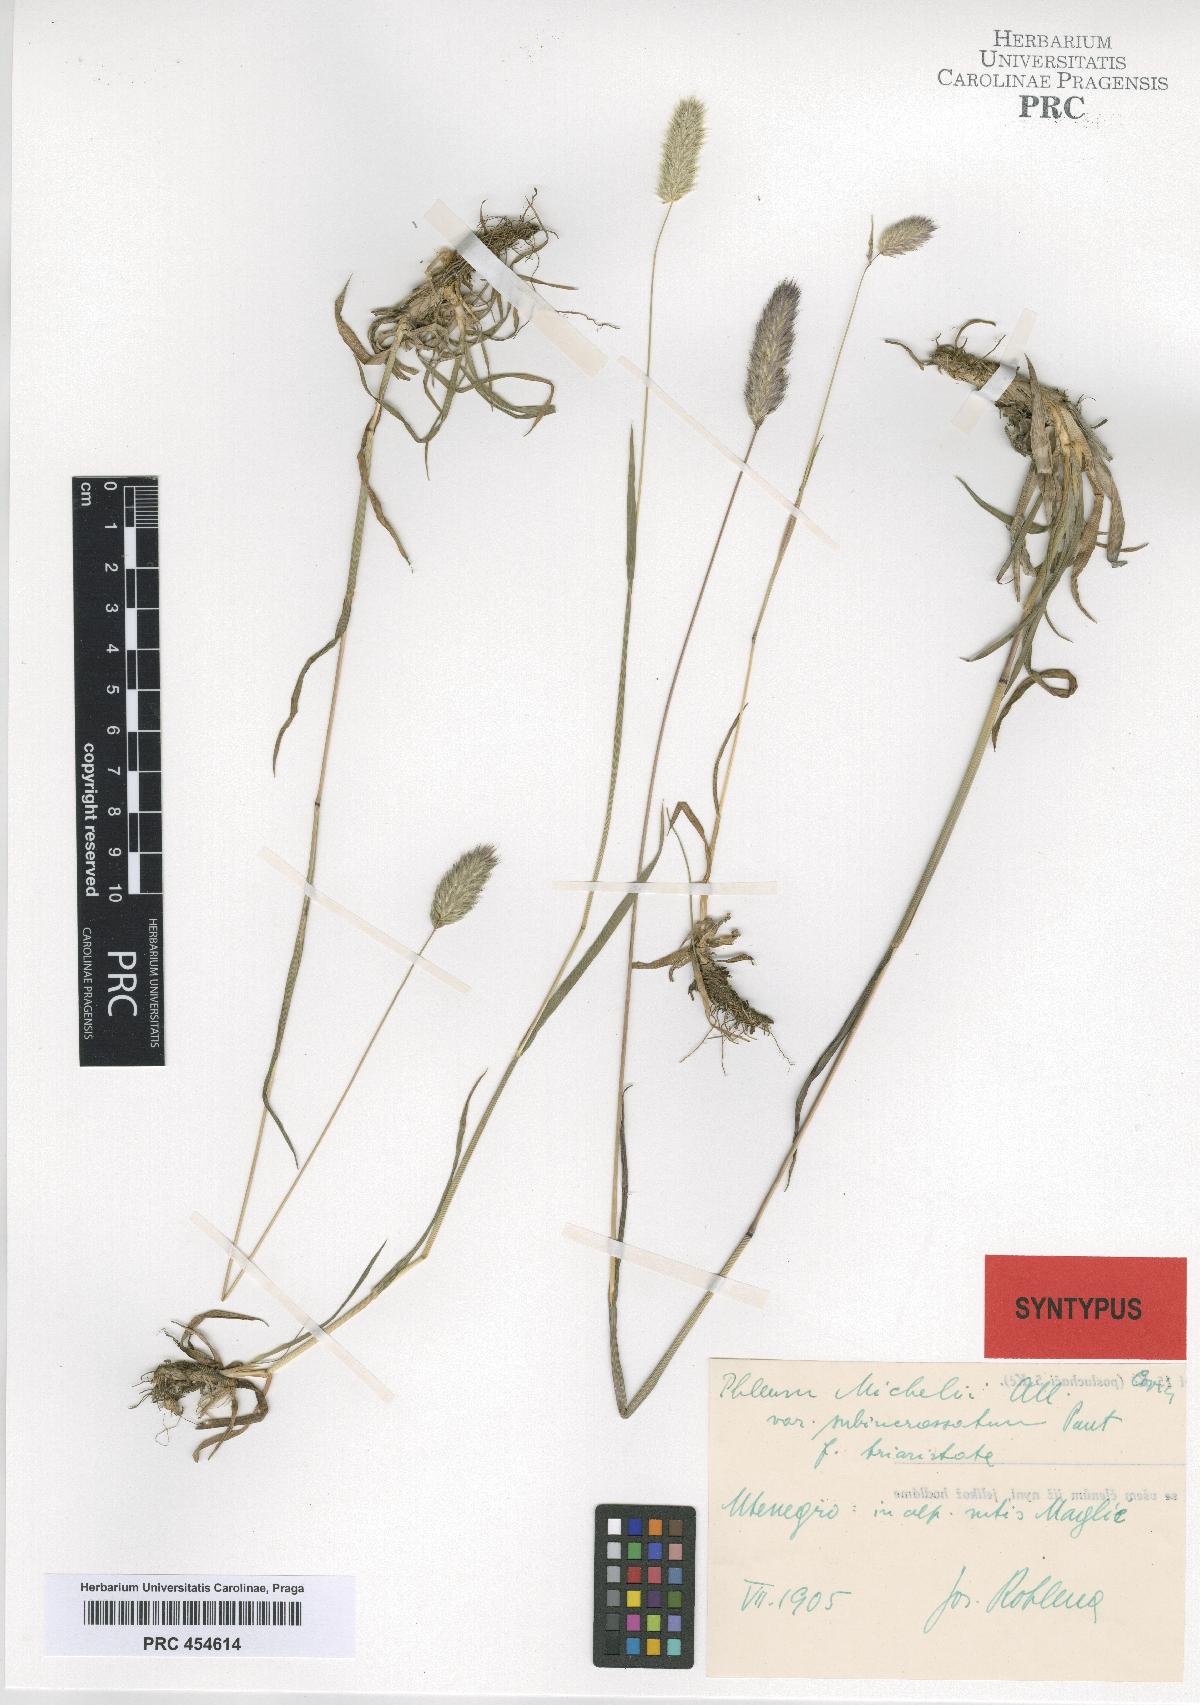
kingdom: Plantae
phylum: Tracheophyta
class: Liliopsida
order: Poales
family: Poaceae
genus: Phleum
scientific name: Phleum hirsutum
